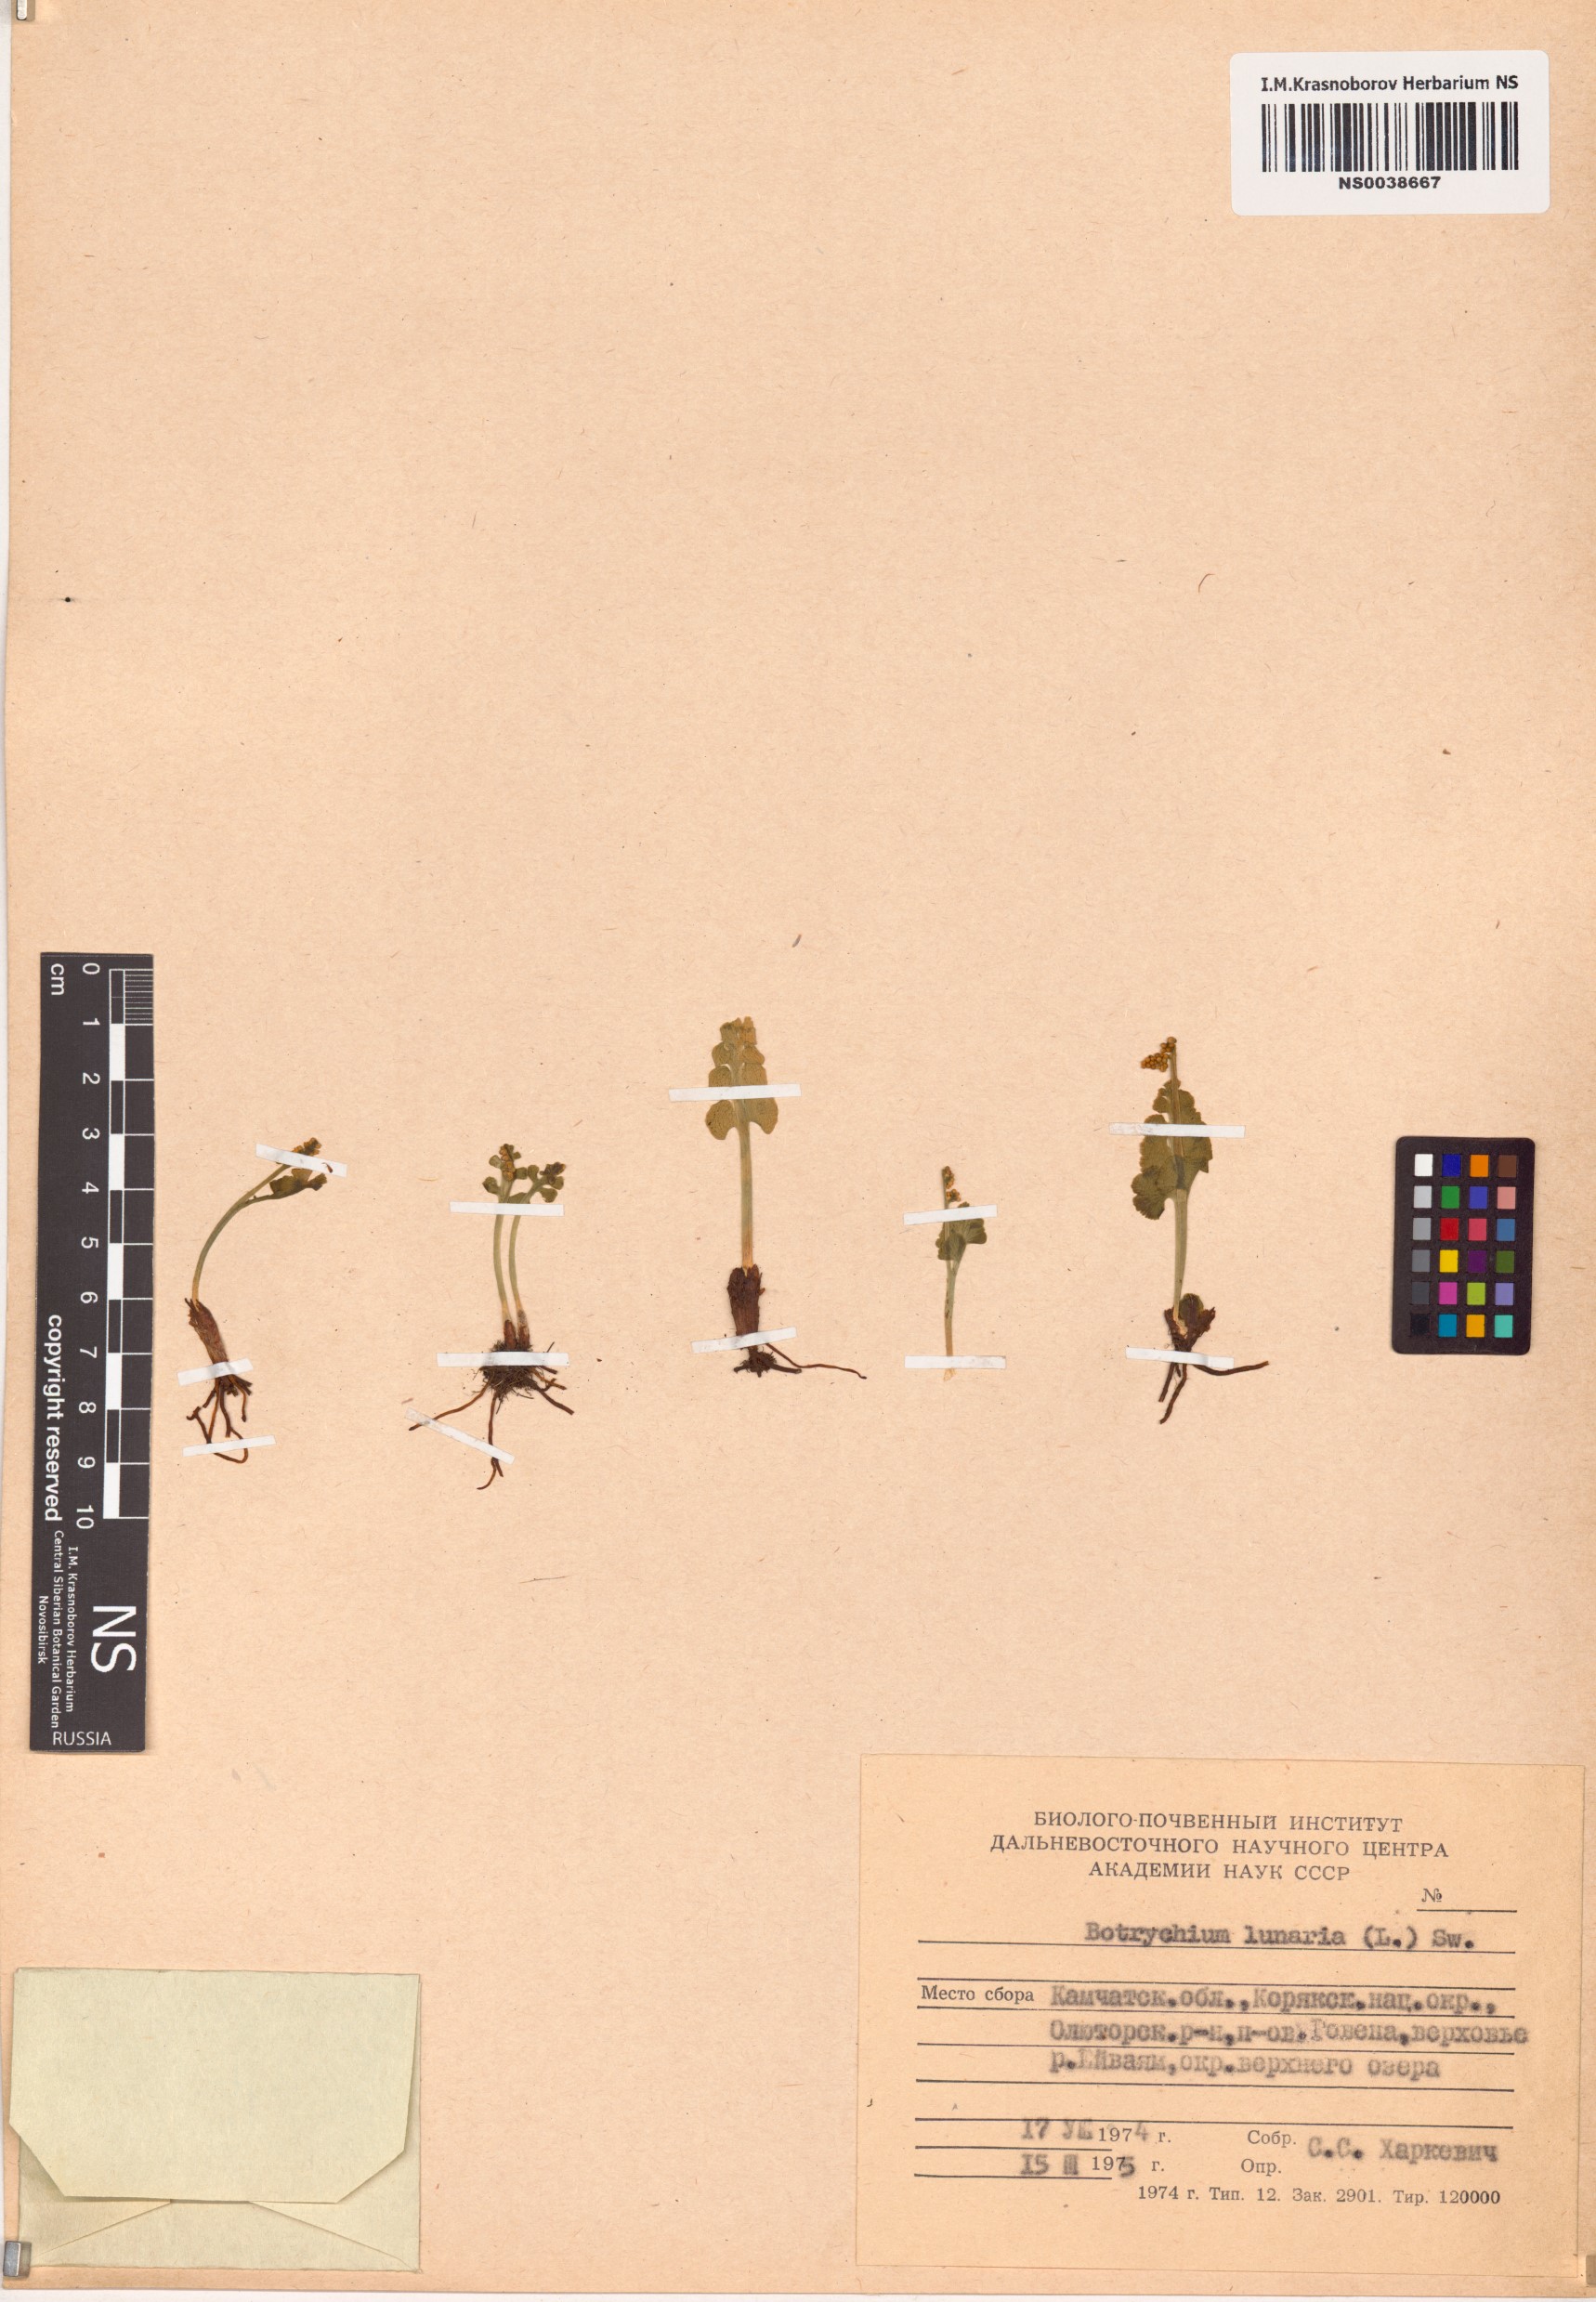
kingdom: Plantae
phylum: Tracheophyta
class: Polypodiopsida
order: Ophioglossales
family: Ophioglossaceae
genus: Botrychium
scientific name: Botrychium lunaria
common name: Moonwort
